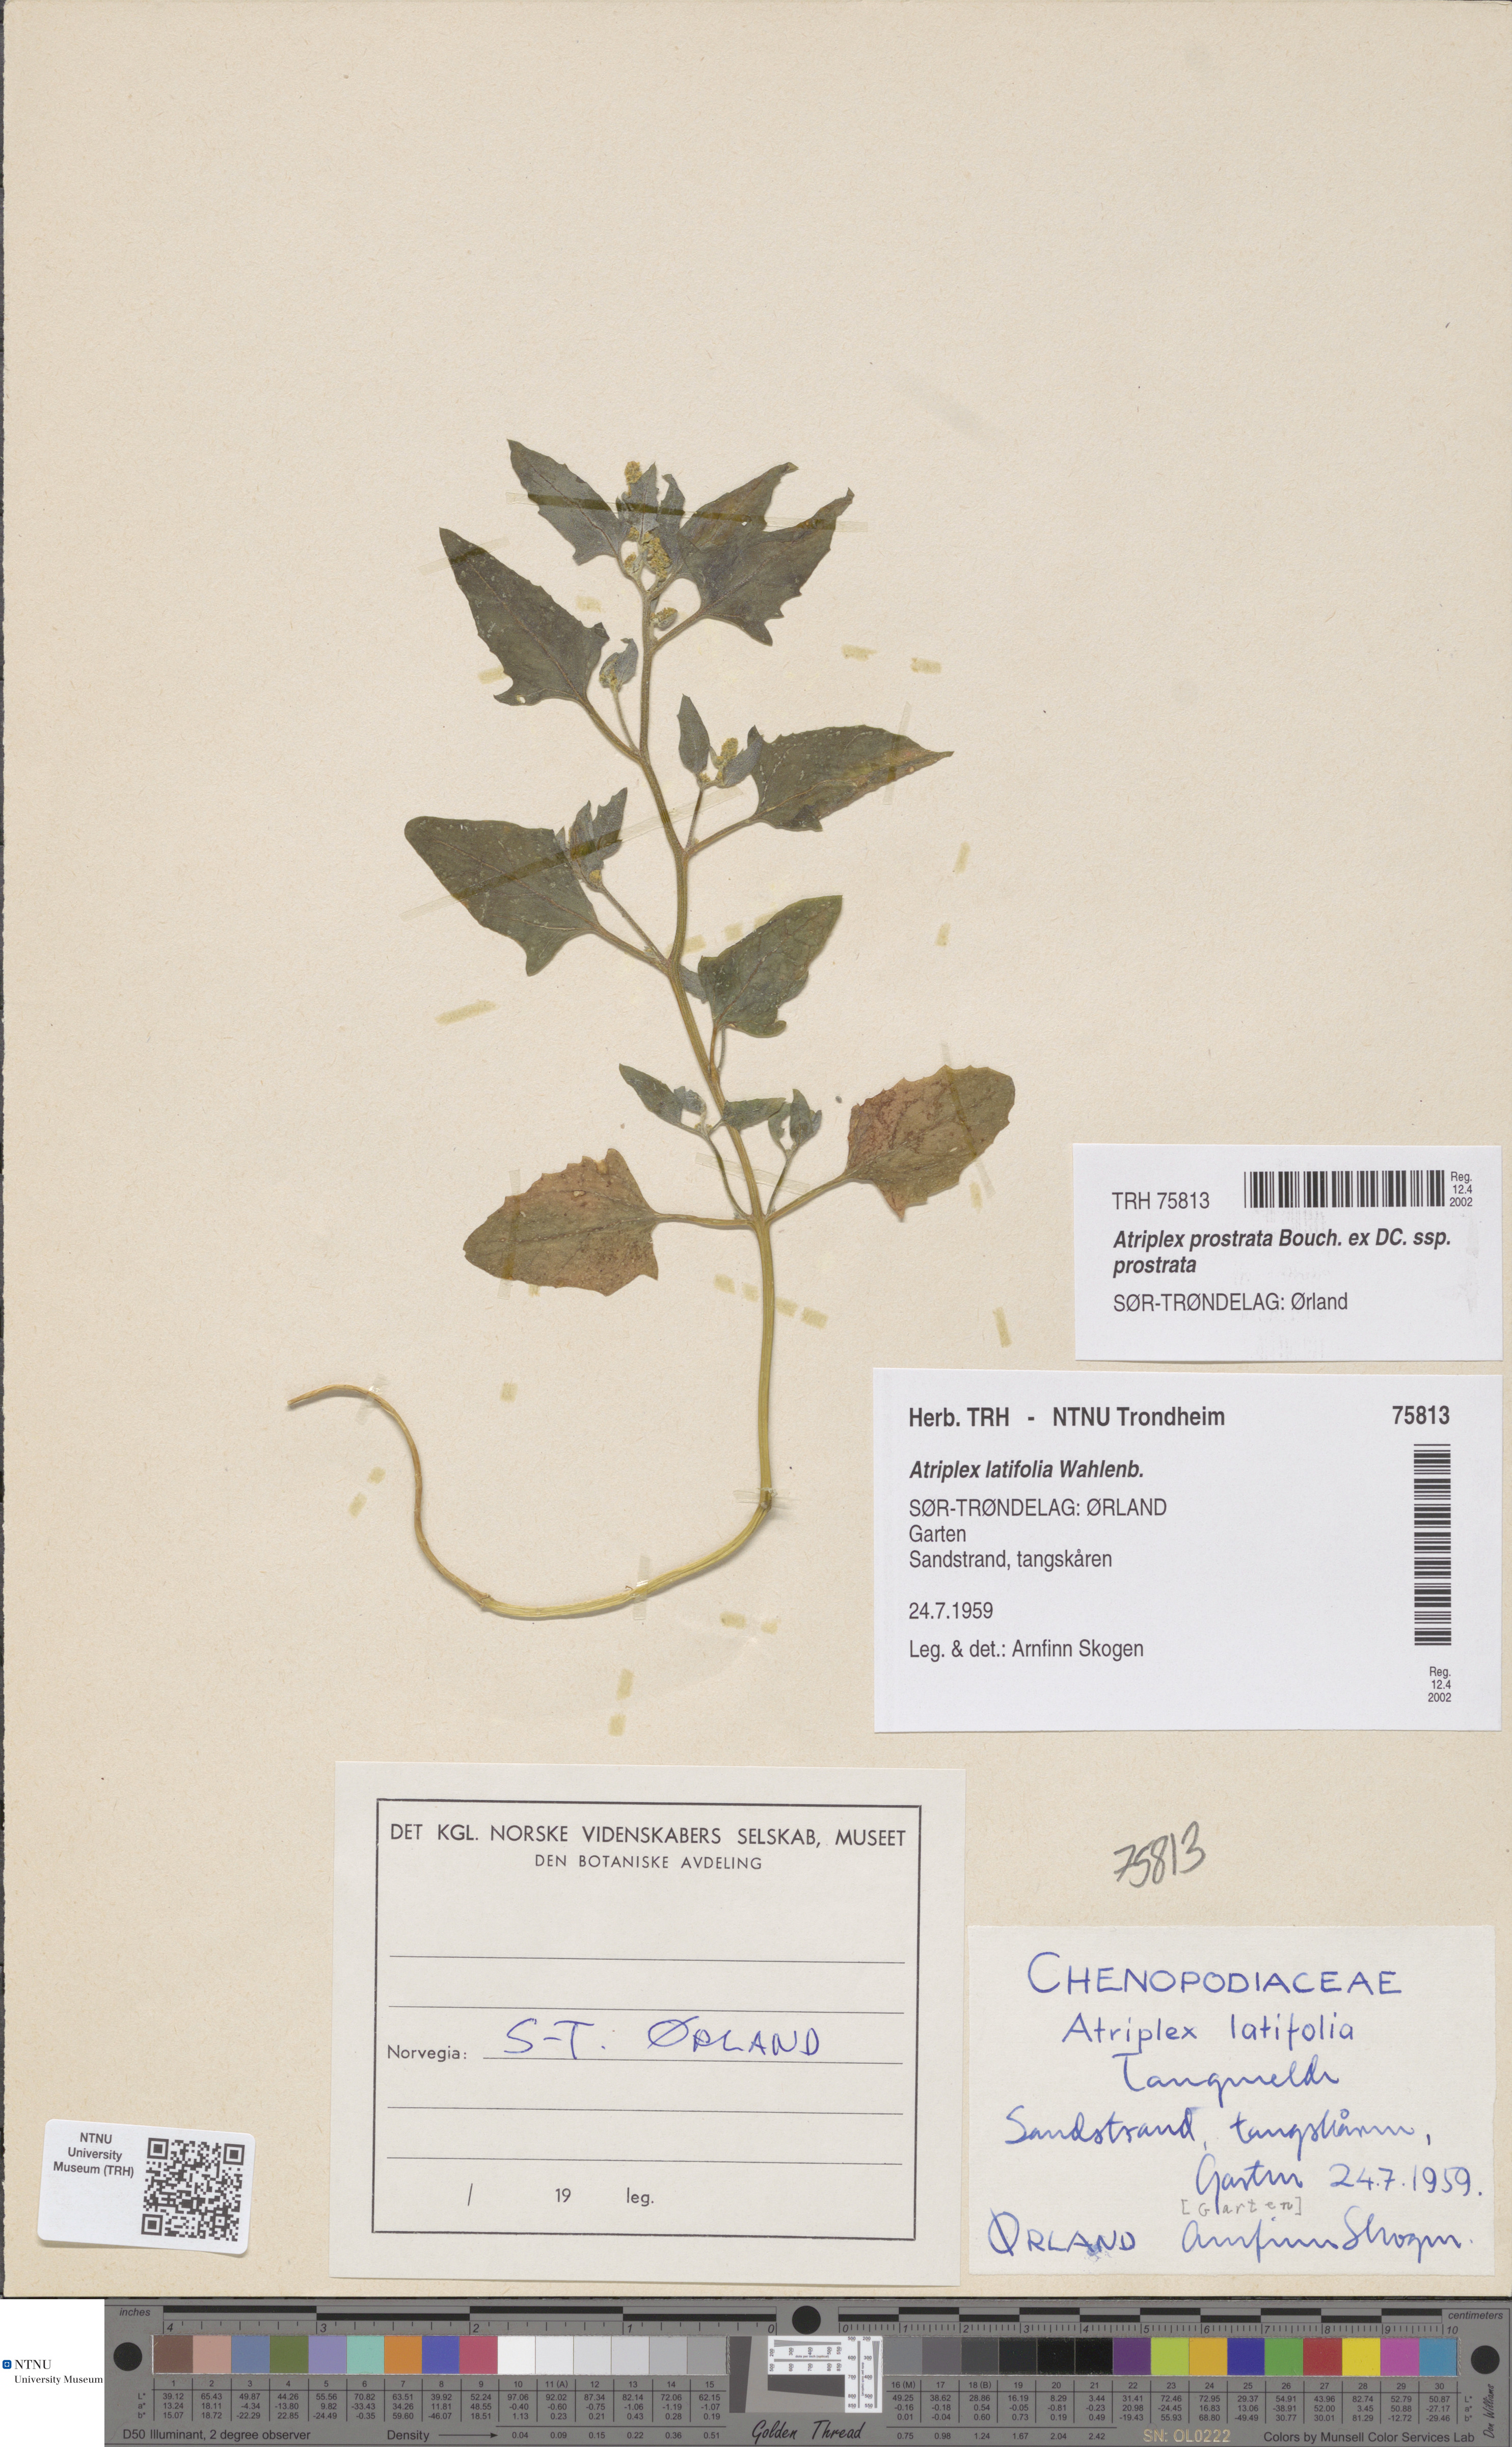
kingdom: Plantae
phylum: Tracheophyta
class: Magnoliopsida
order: Caryophyllales
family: Amaranthaceae
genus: Atriplex
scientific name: Atriplex prostrata
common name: Spear-leaved orache
